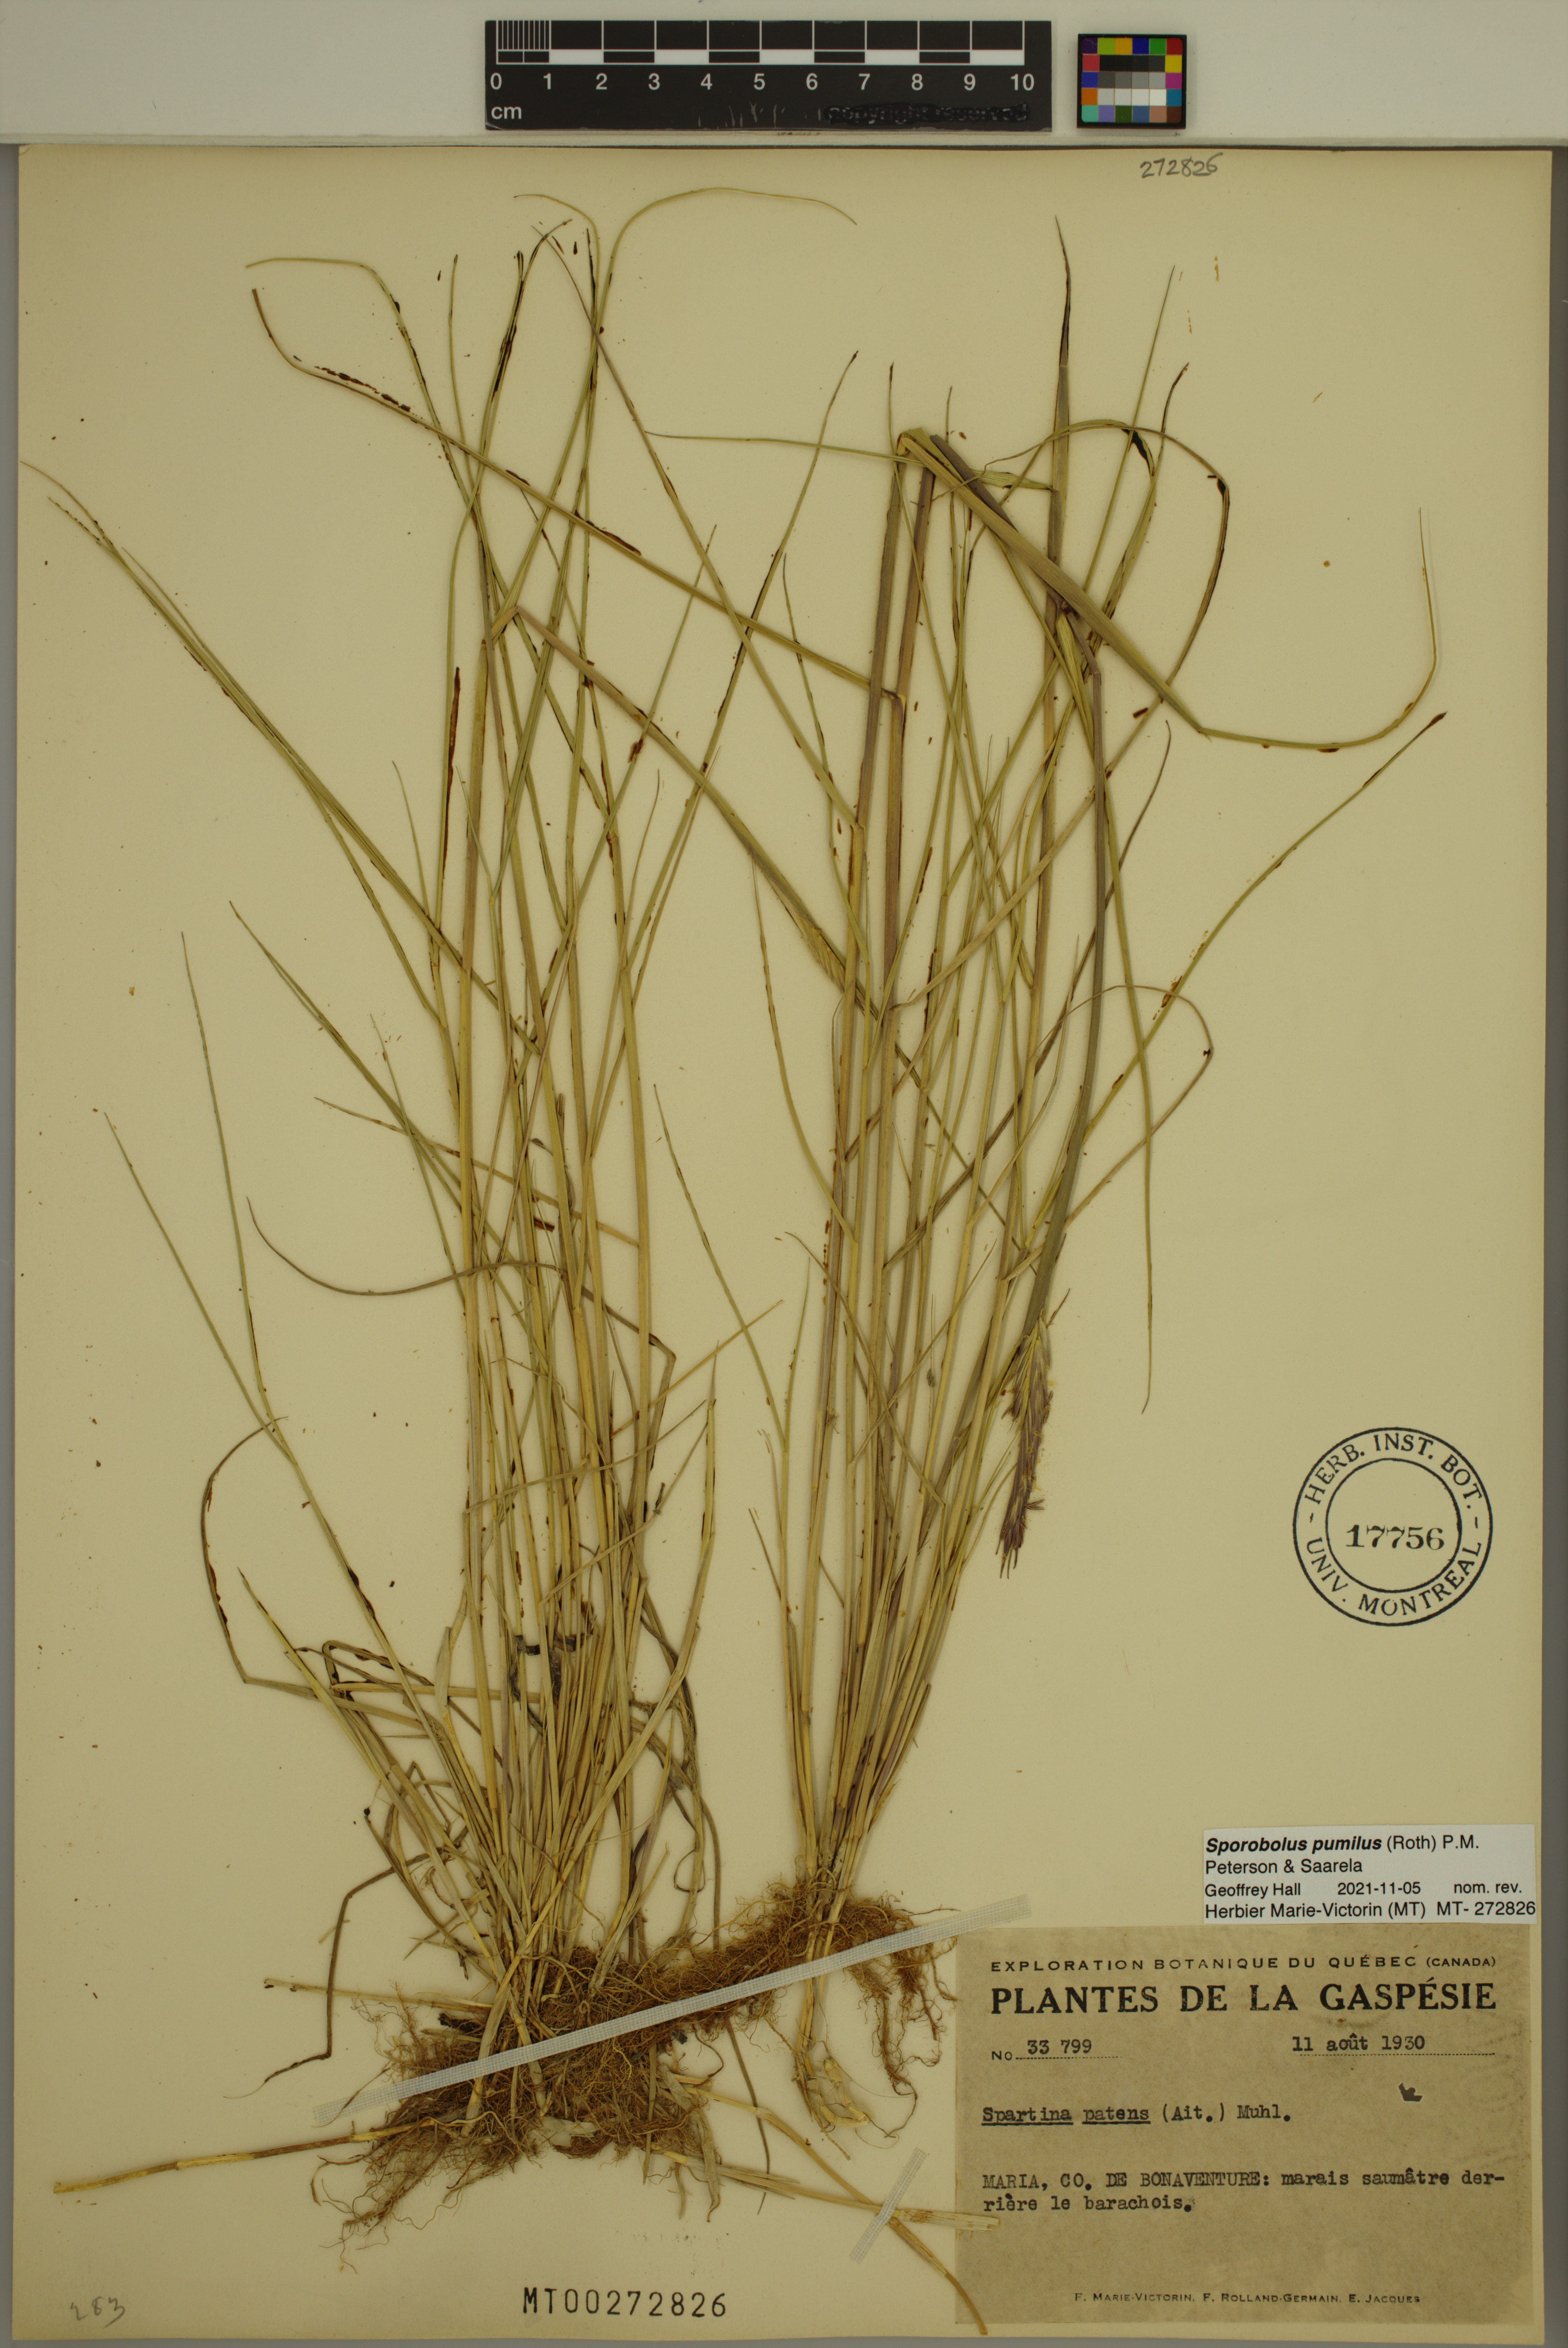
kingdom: Plantae
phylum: Tracheophyta
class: Liliopsida
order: Poales
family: Poaceae
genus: Sporobolus
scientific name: Sporobolus pumilus
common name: Highwater grass
